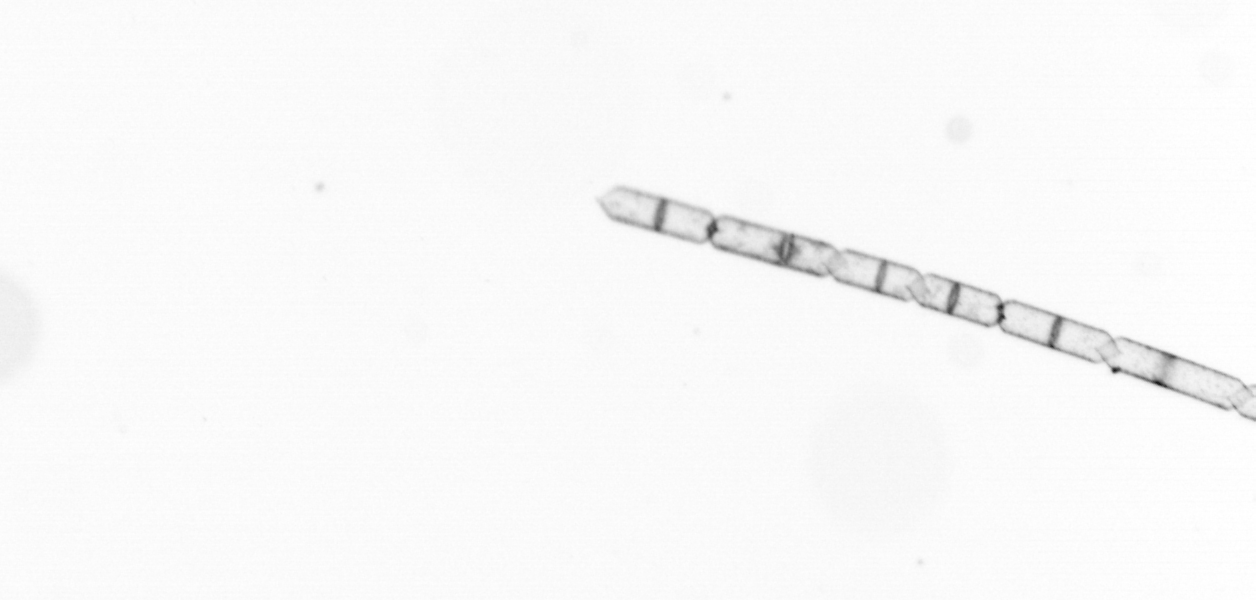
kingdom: Chromista
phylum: Ochrophyta
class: Bacillariophyceae
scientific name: Bacillariophyceae
